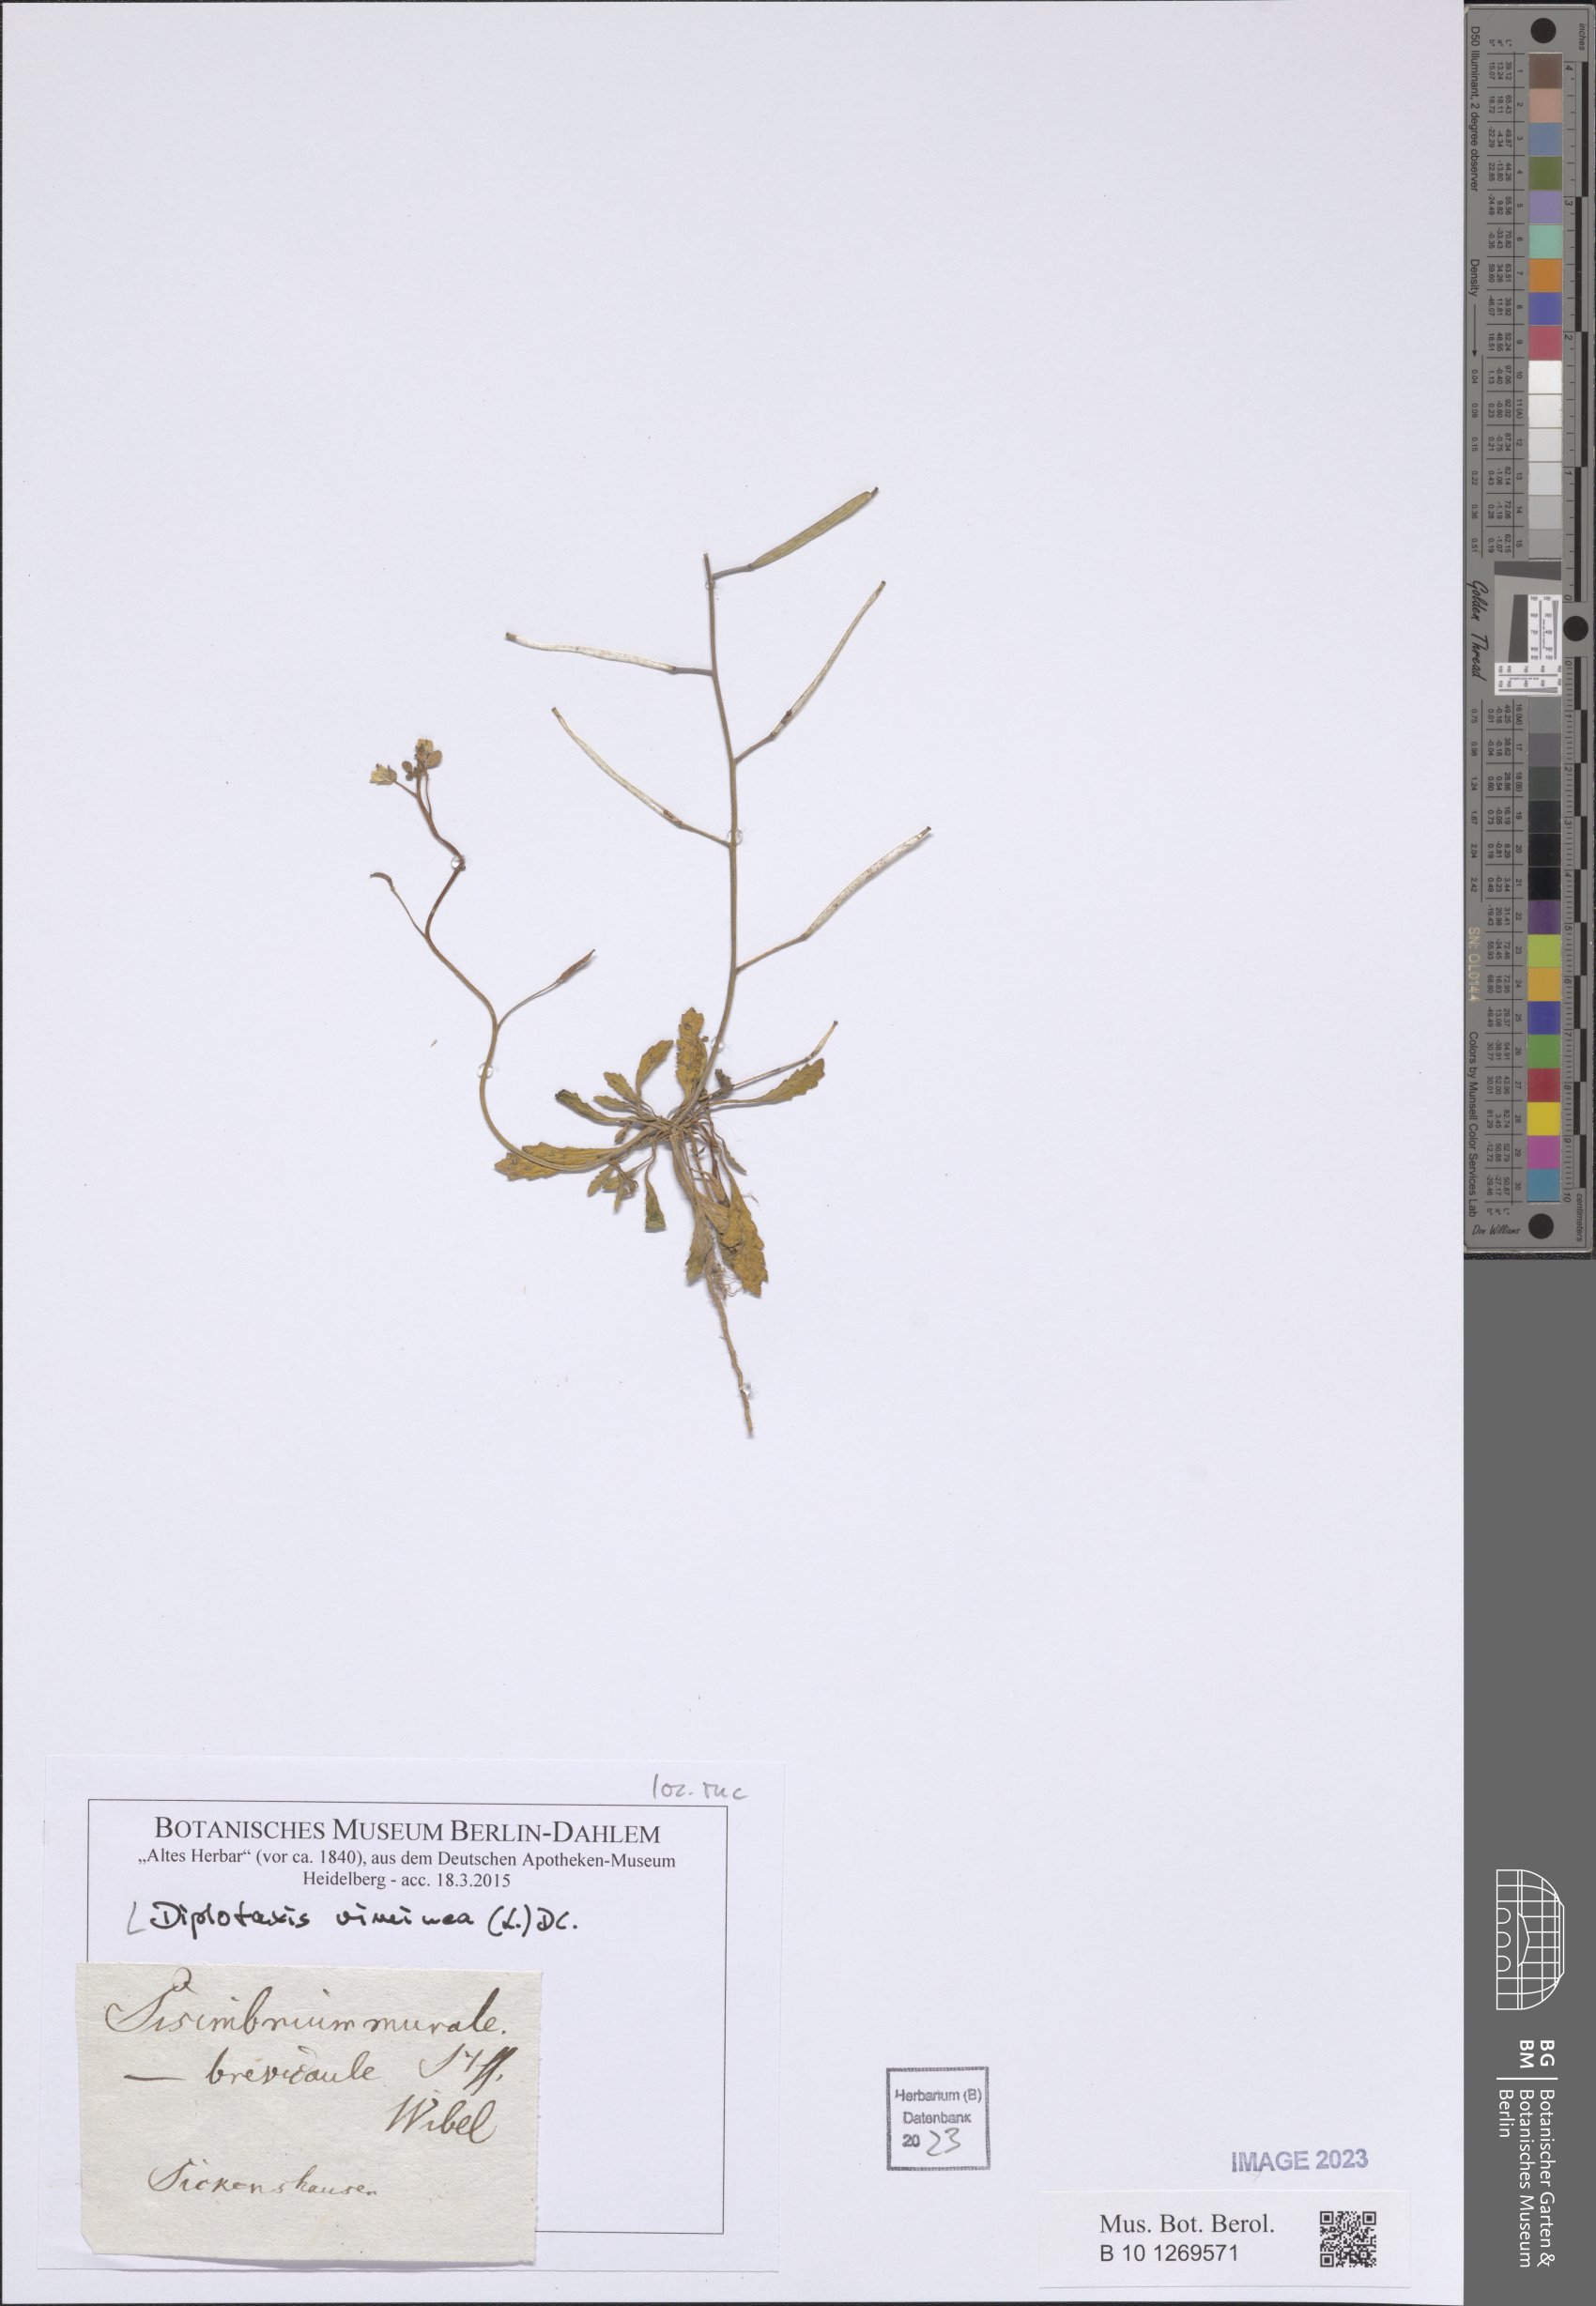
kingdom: Plantae
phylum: Tracheophyta
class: Magnoliopsida
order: Brassicales
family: Brassicaceae
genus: Diplotaxis
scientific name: Diplotaxis viminea
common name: Vineyard wall rocket
